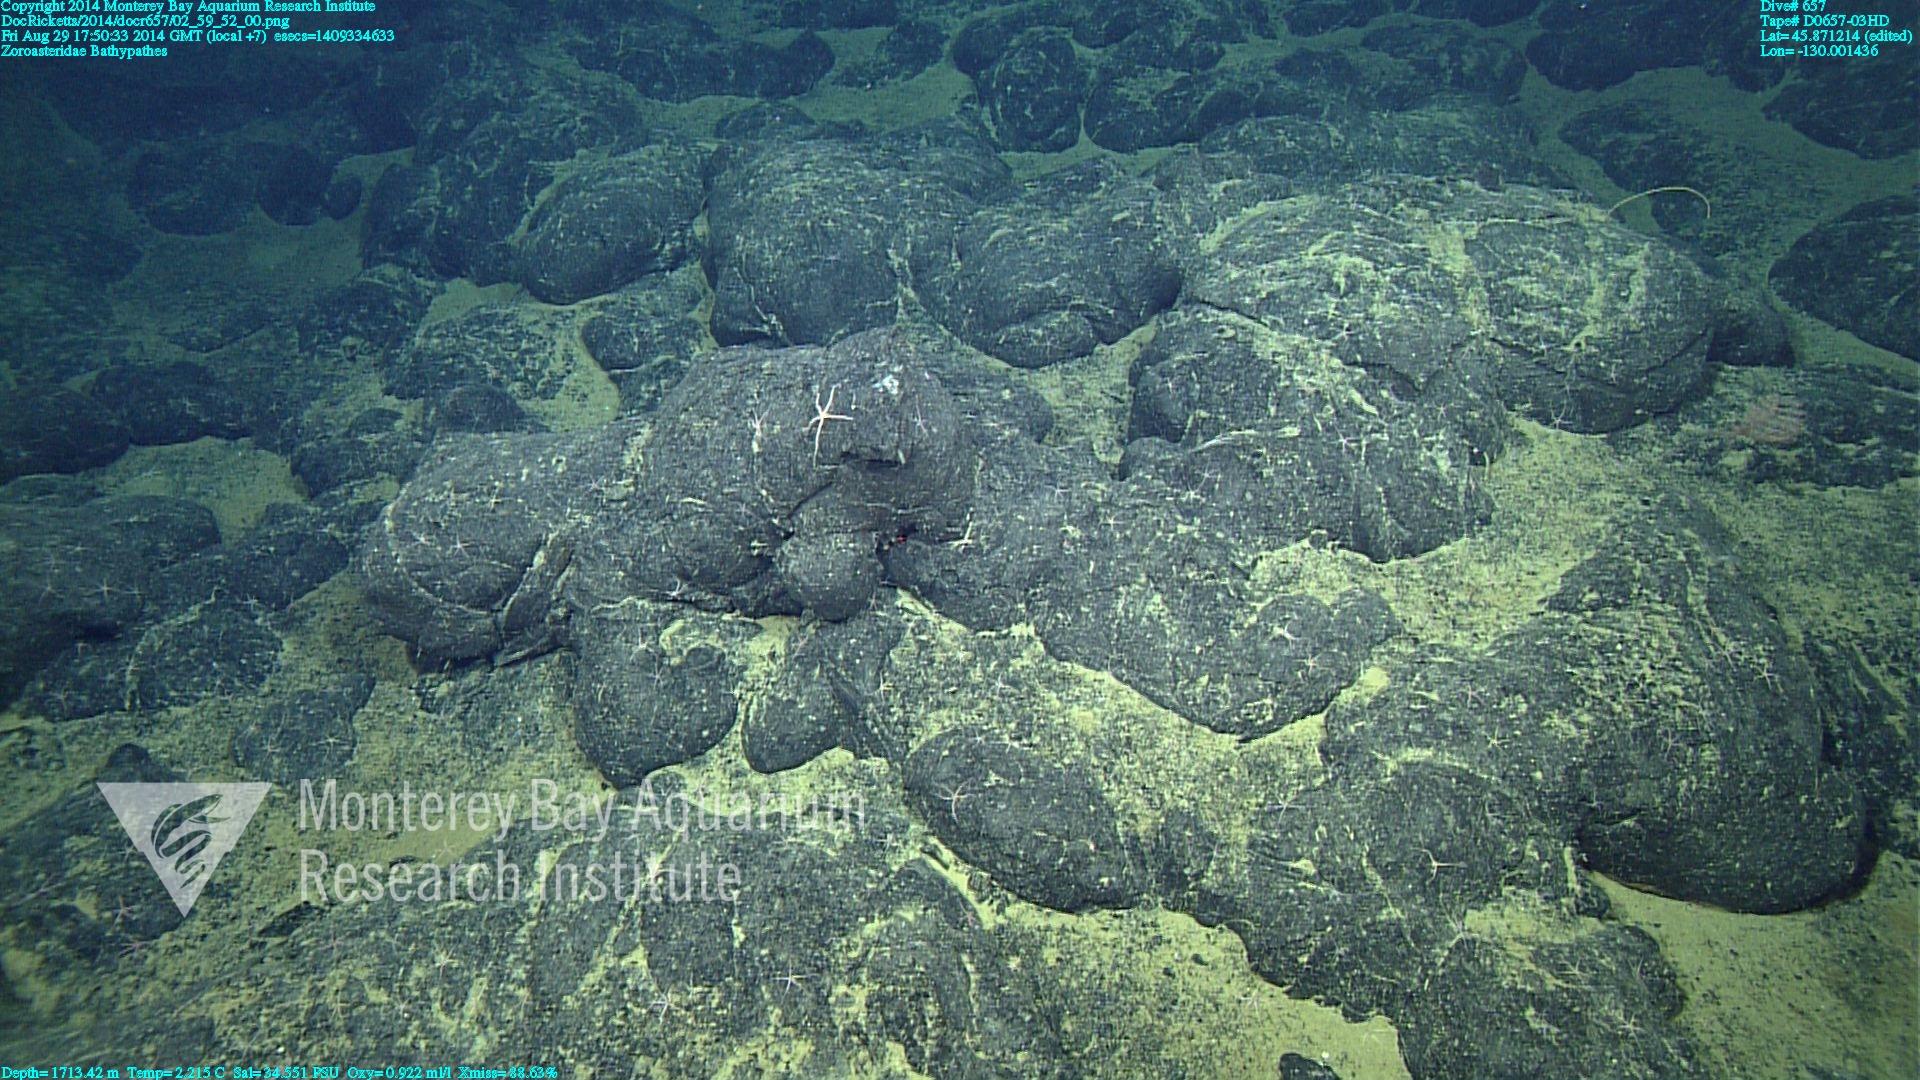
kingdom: Animalia
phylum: Cnidaria
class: Anthozoa
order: Antipatharia
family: Schizopathidae
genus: Bathypathes
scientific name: Bathypathes
